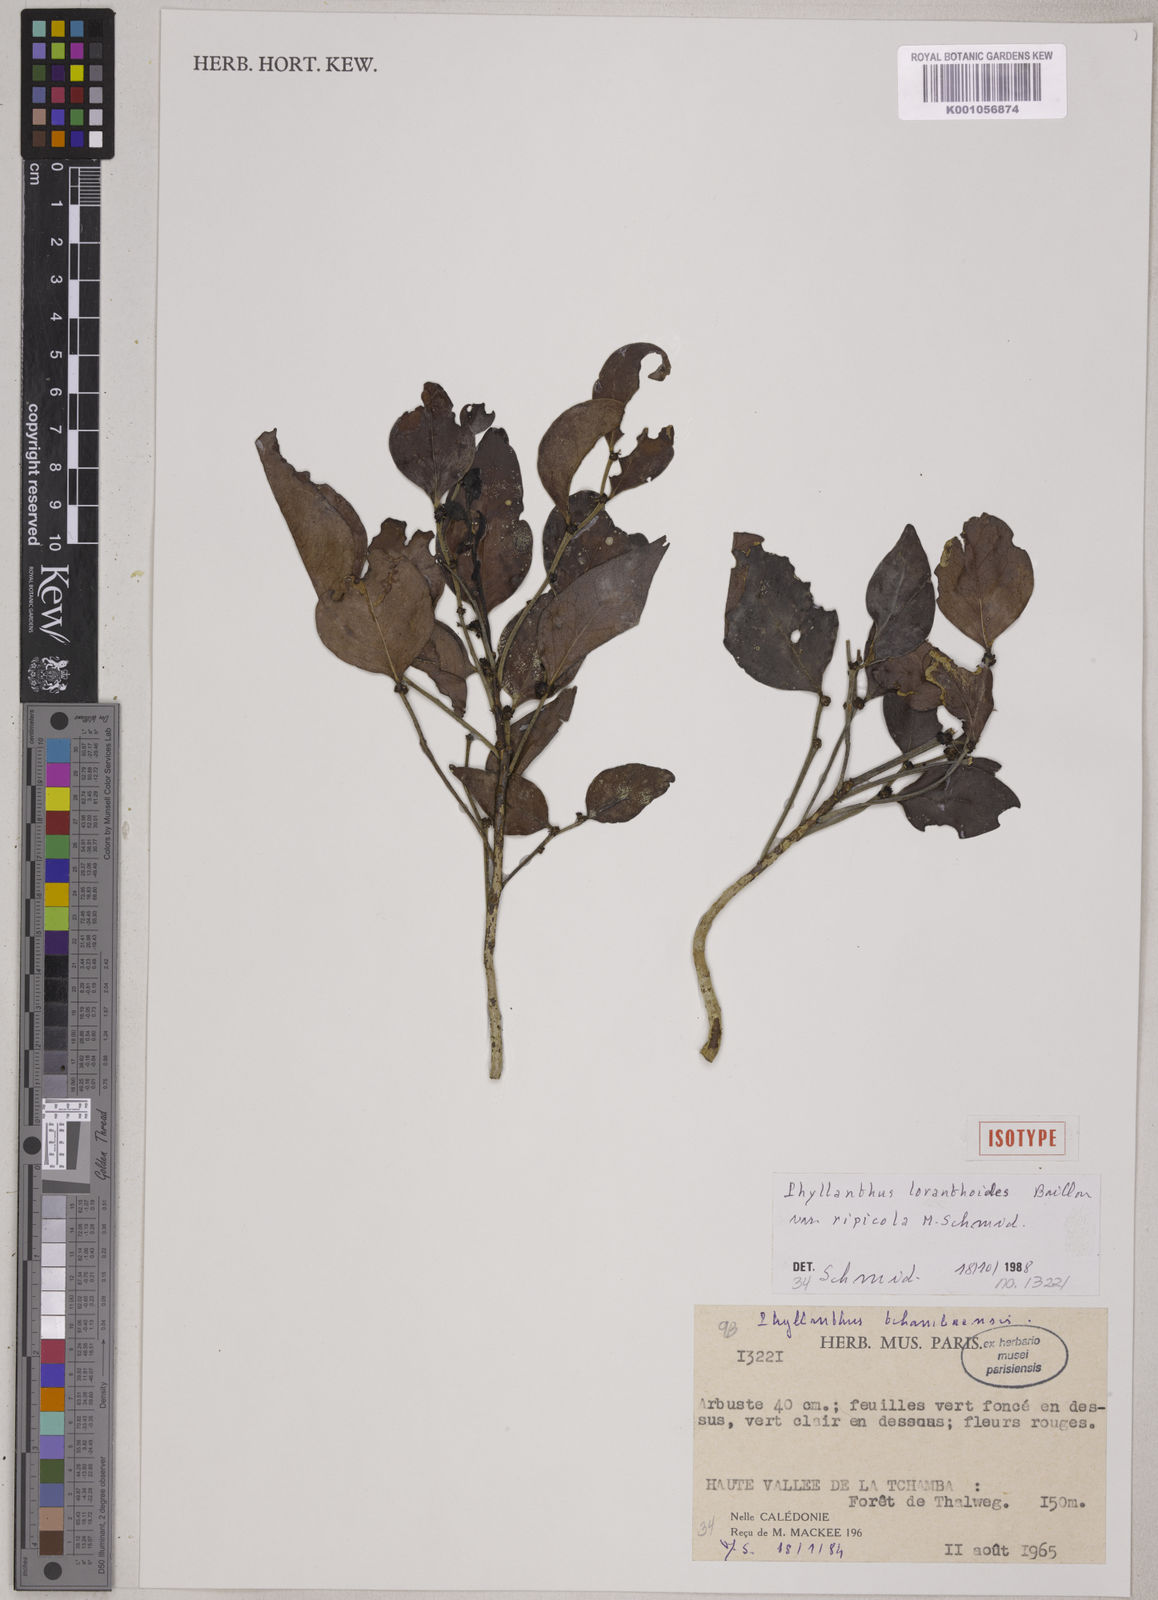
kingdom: Plantae
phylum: Tracheophyta
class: Magnoliopsida
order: Malpighiales
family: Phyllanthaceae
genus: Phyllanthus
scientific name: Phyllanthus loranthoides
